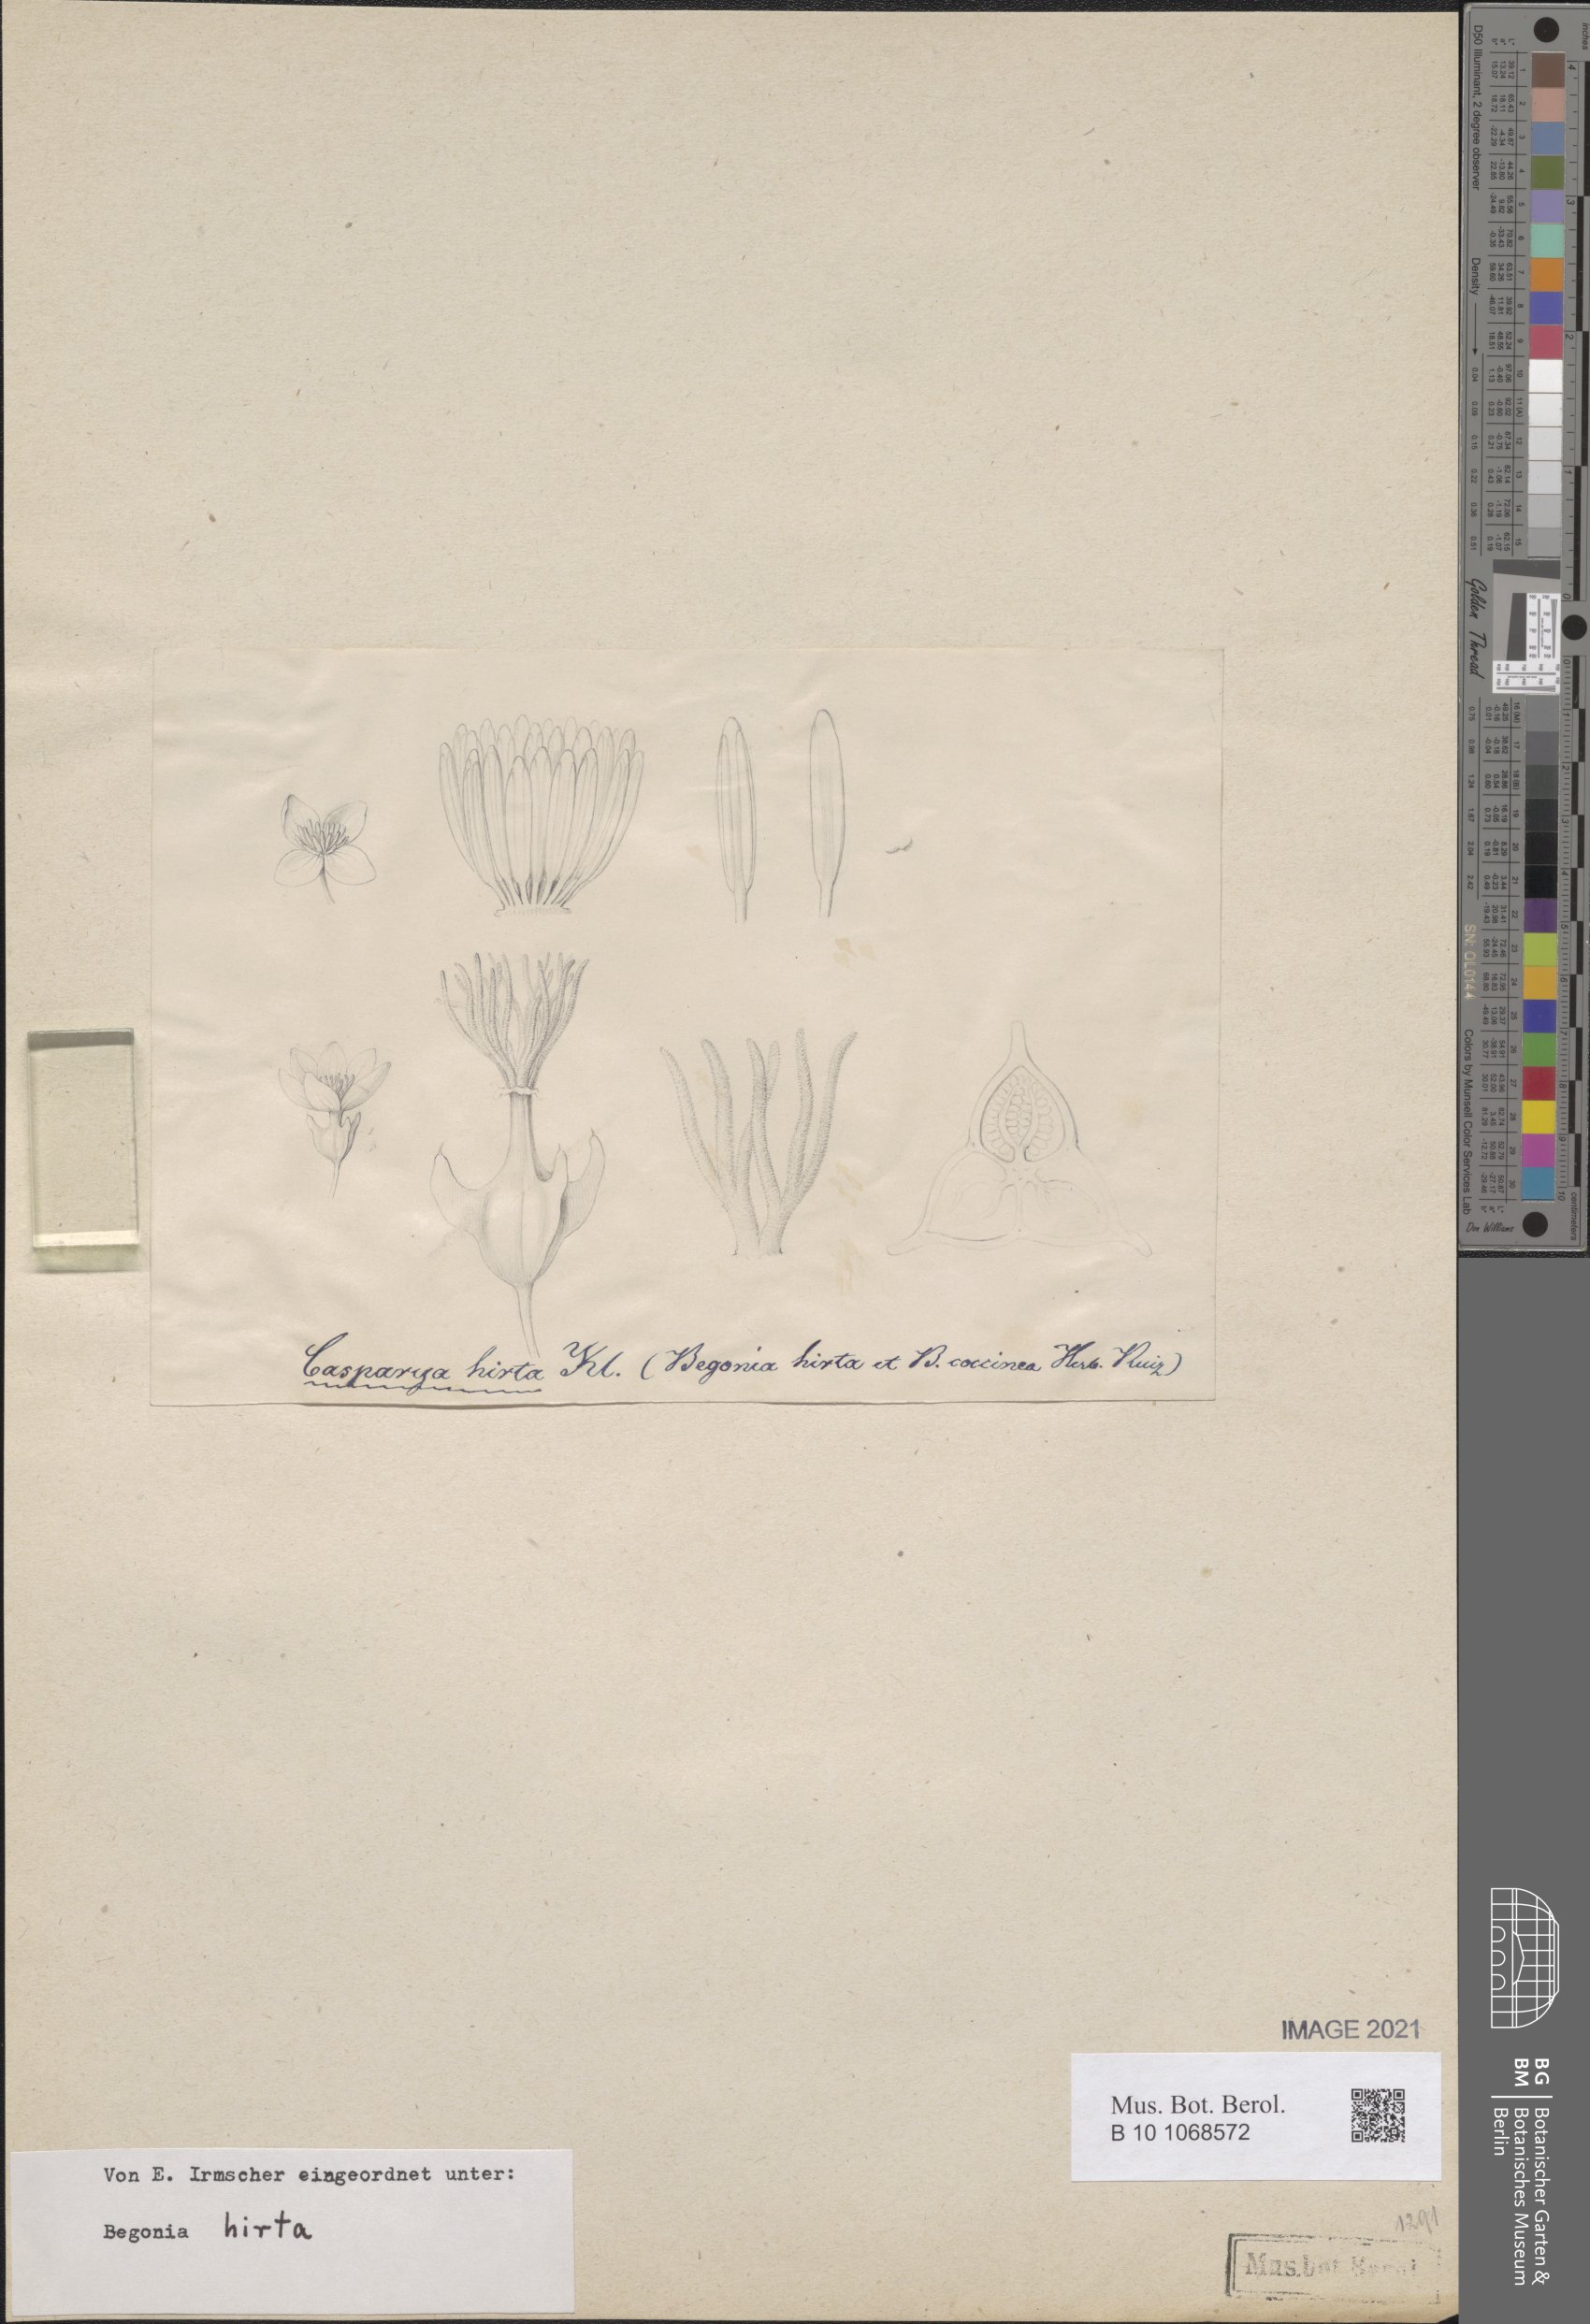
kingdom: Plantae
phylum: Tracheophyta
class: Magnoliopsida
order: Cucurbitales
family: Begoniaceae
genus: Begonia
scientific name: Begonia hirta
